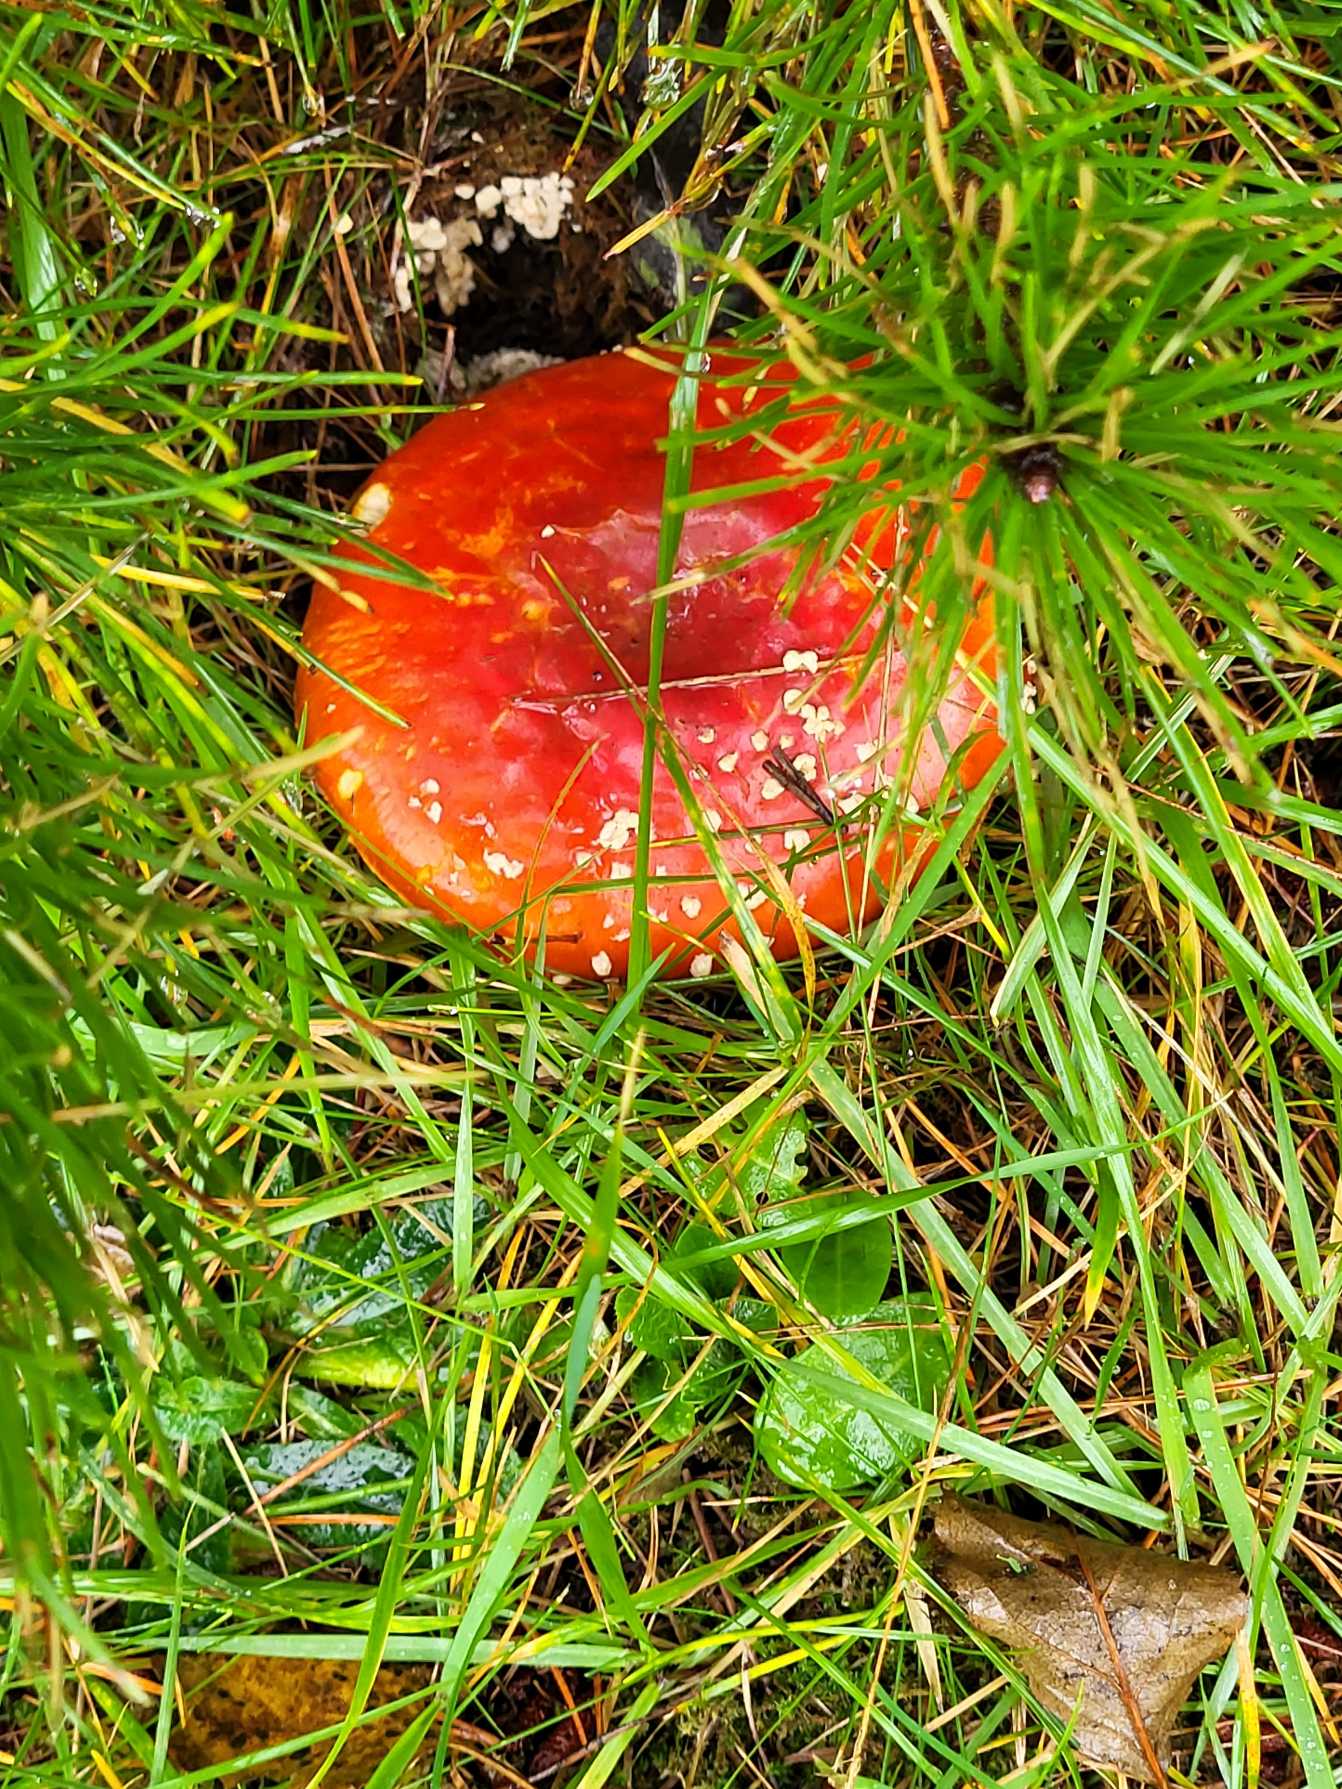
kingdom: Fungi
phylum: Basidiomycota
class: Agaricomycetes
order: Agaricales
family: Amanitaceae
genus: Amanita
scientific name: Amanita muscaria
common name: Rød fluesvamp
